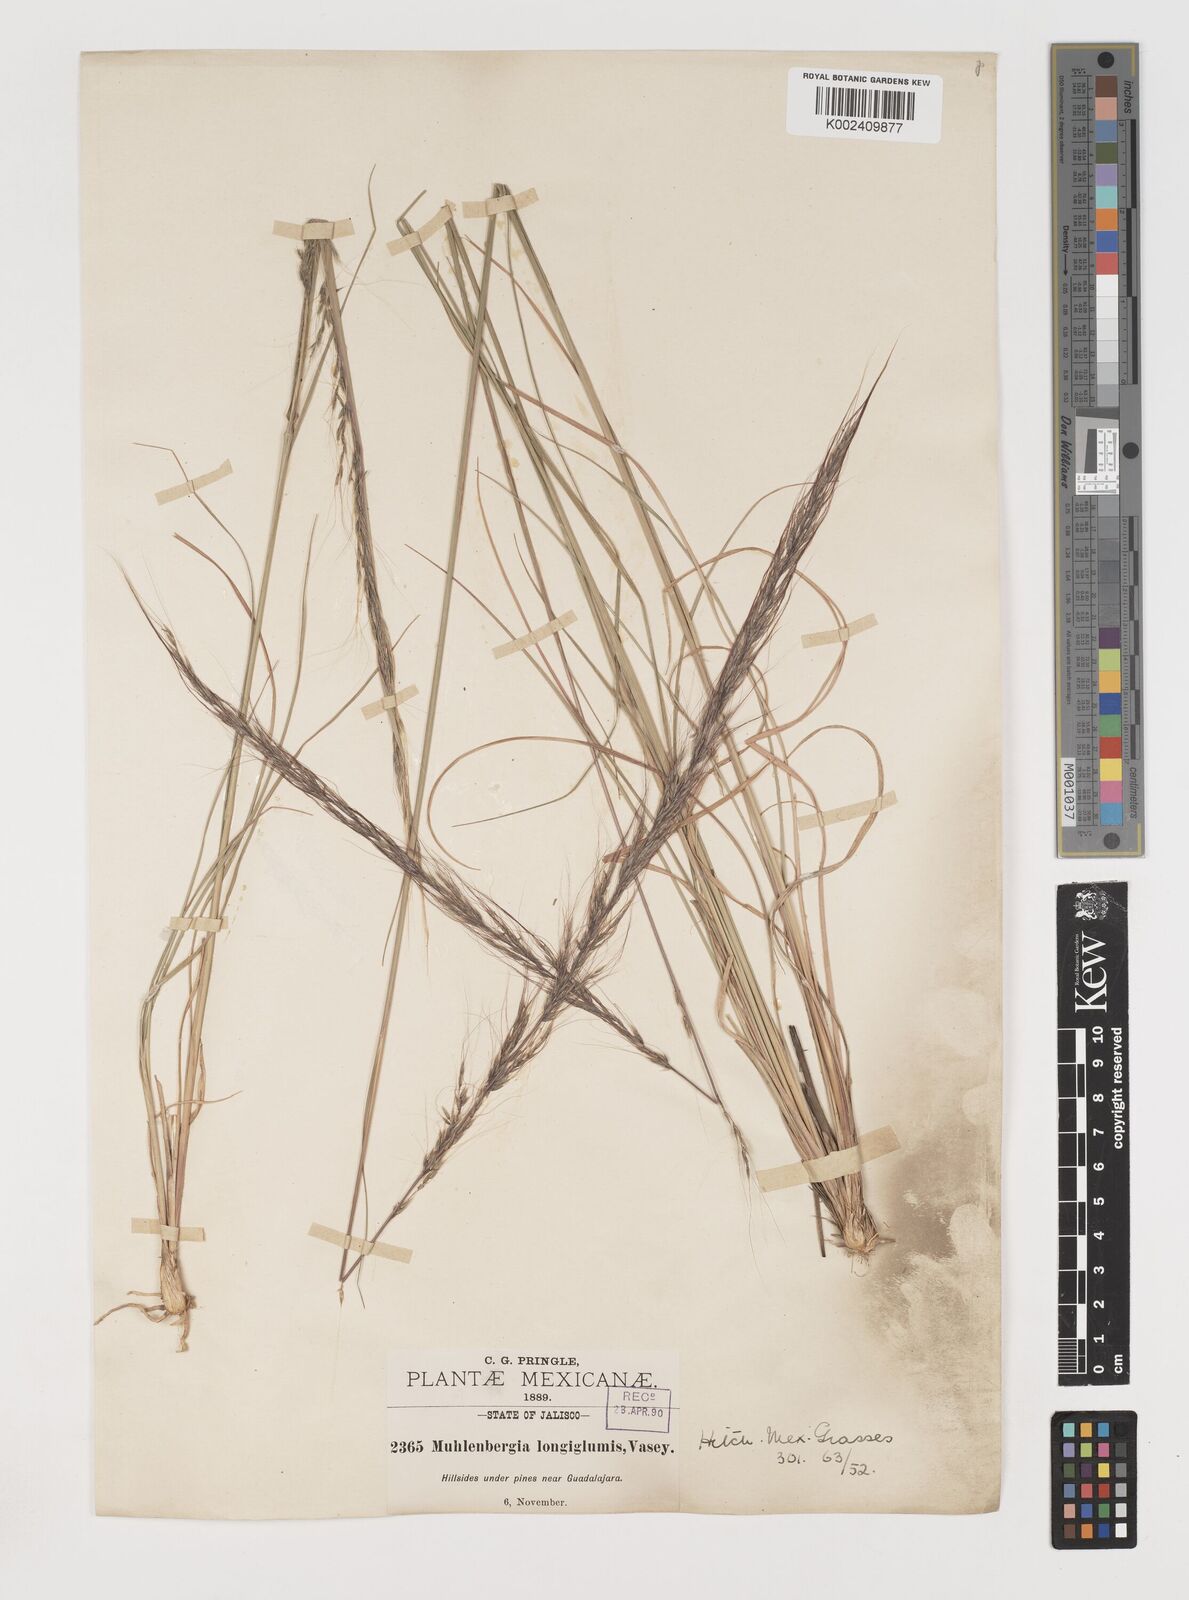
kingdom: Plantae
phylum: Tracheophyta
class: Liliopsida
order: Poales
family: Poaceae
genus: Muhlenbergia
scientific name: Muhlenbergia longiglumis
